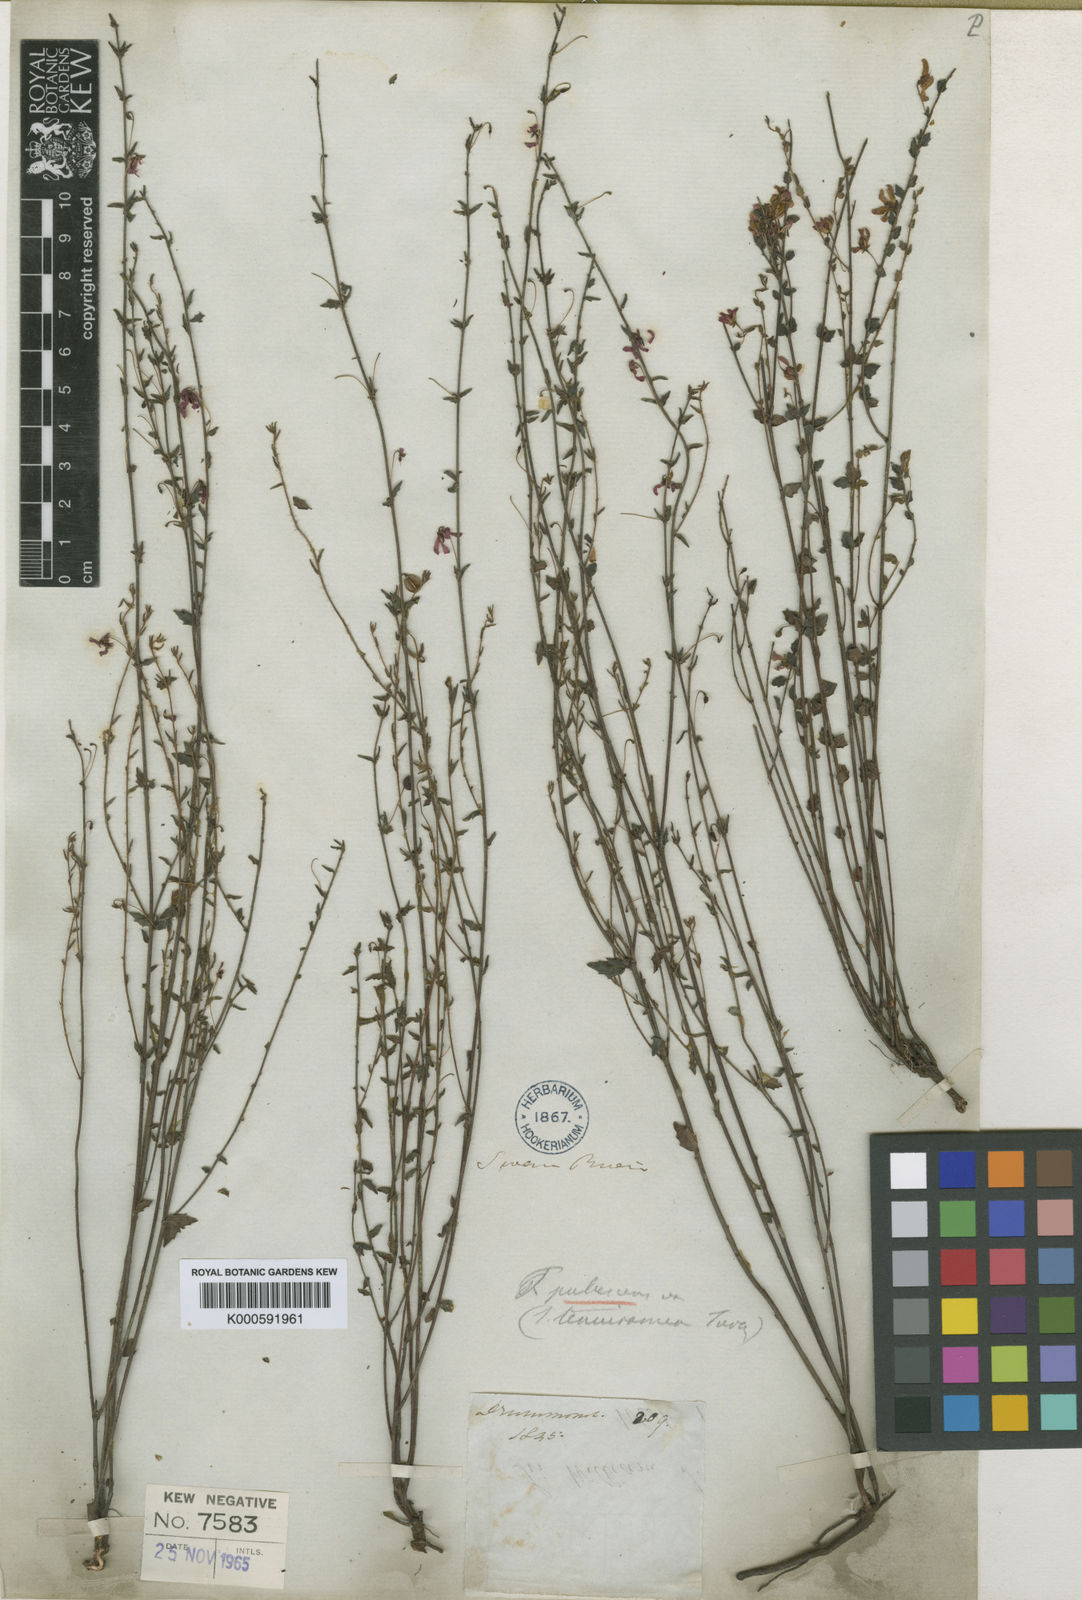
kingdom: Plantae
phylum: Tracheophyta
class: Magnoliopsida
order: Oxalidales
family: Elaeocarpaceae
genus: Tetratheca
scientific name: Tetratheca pubescens
